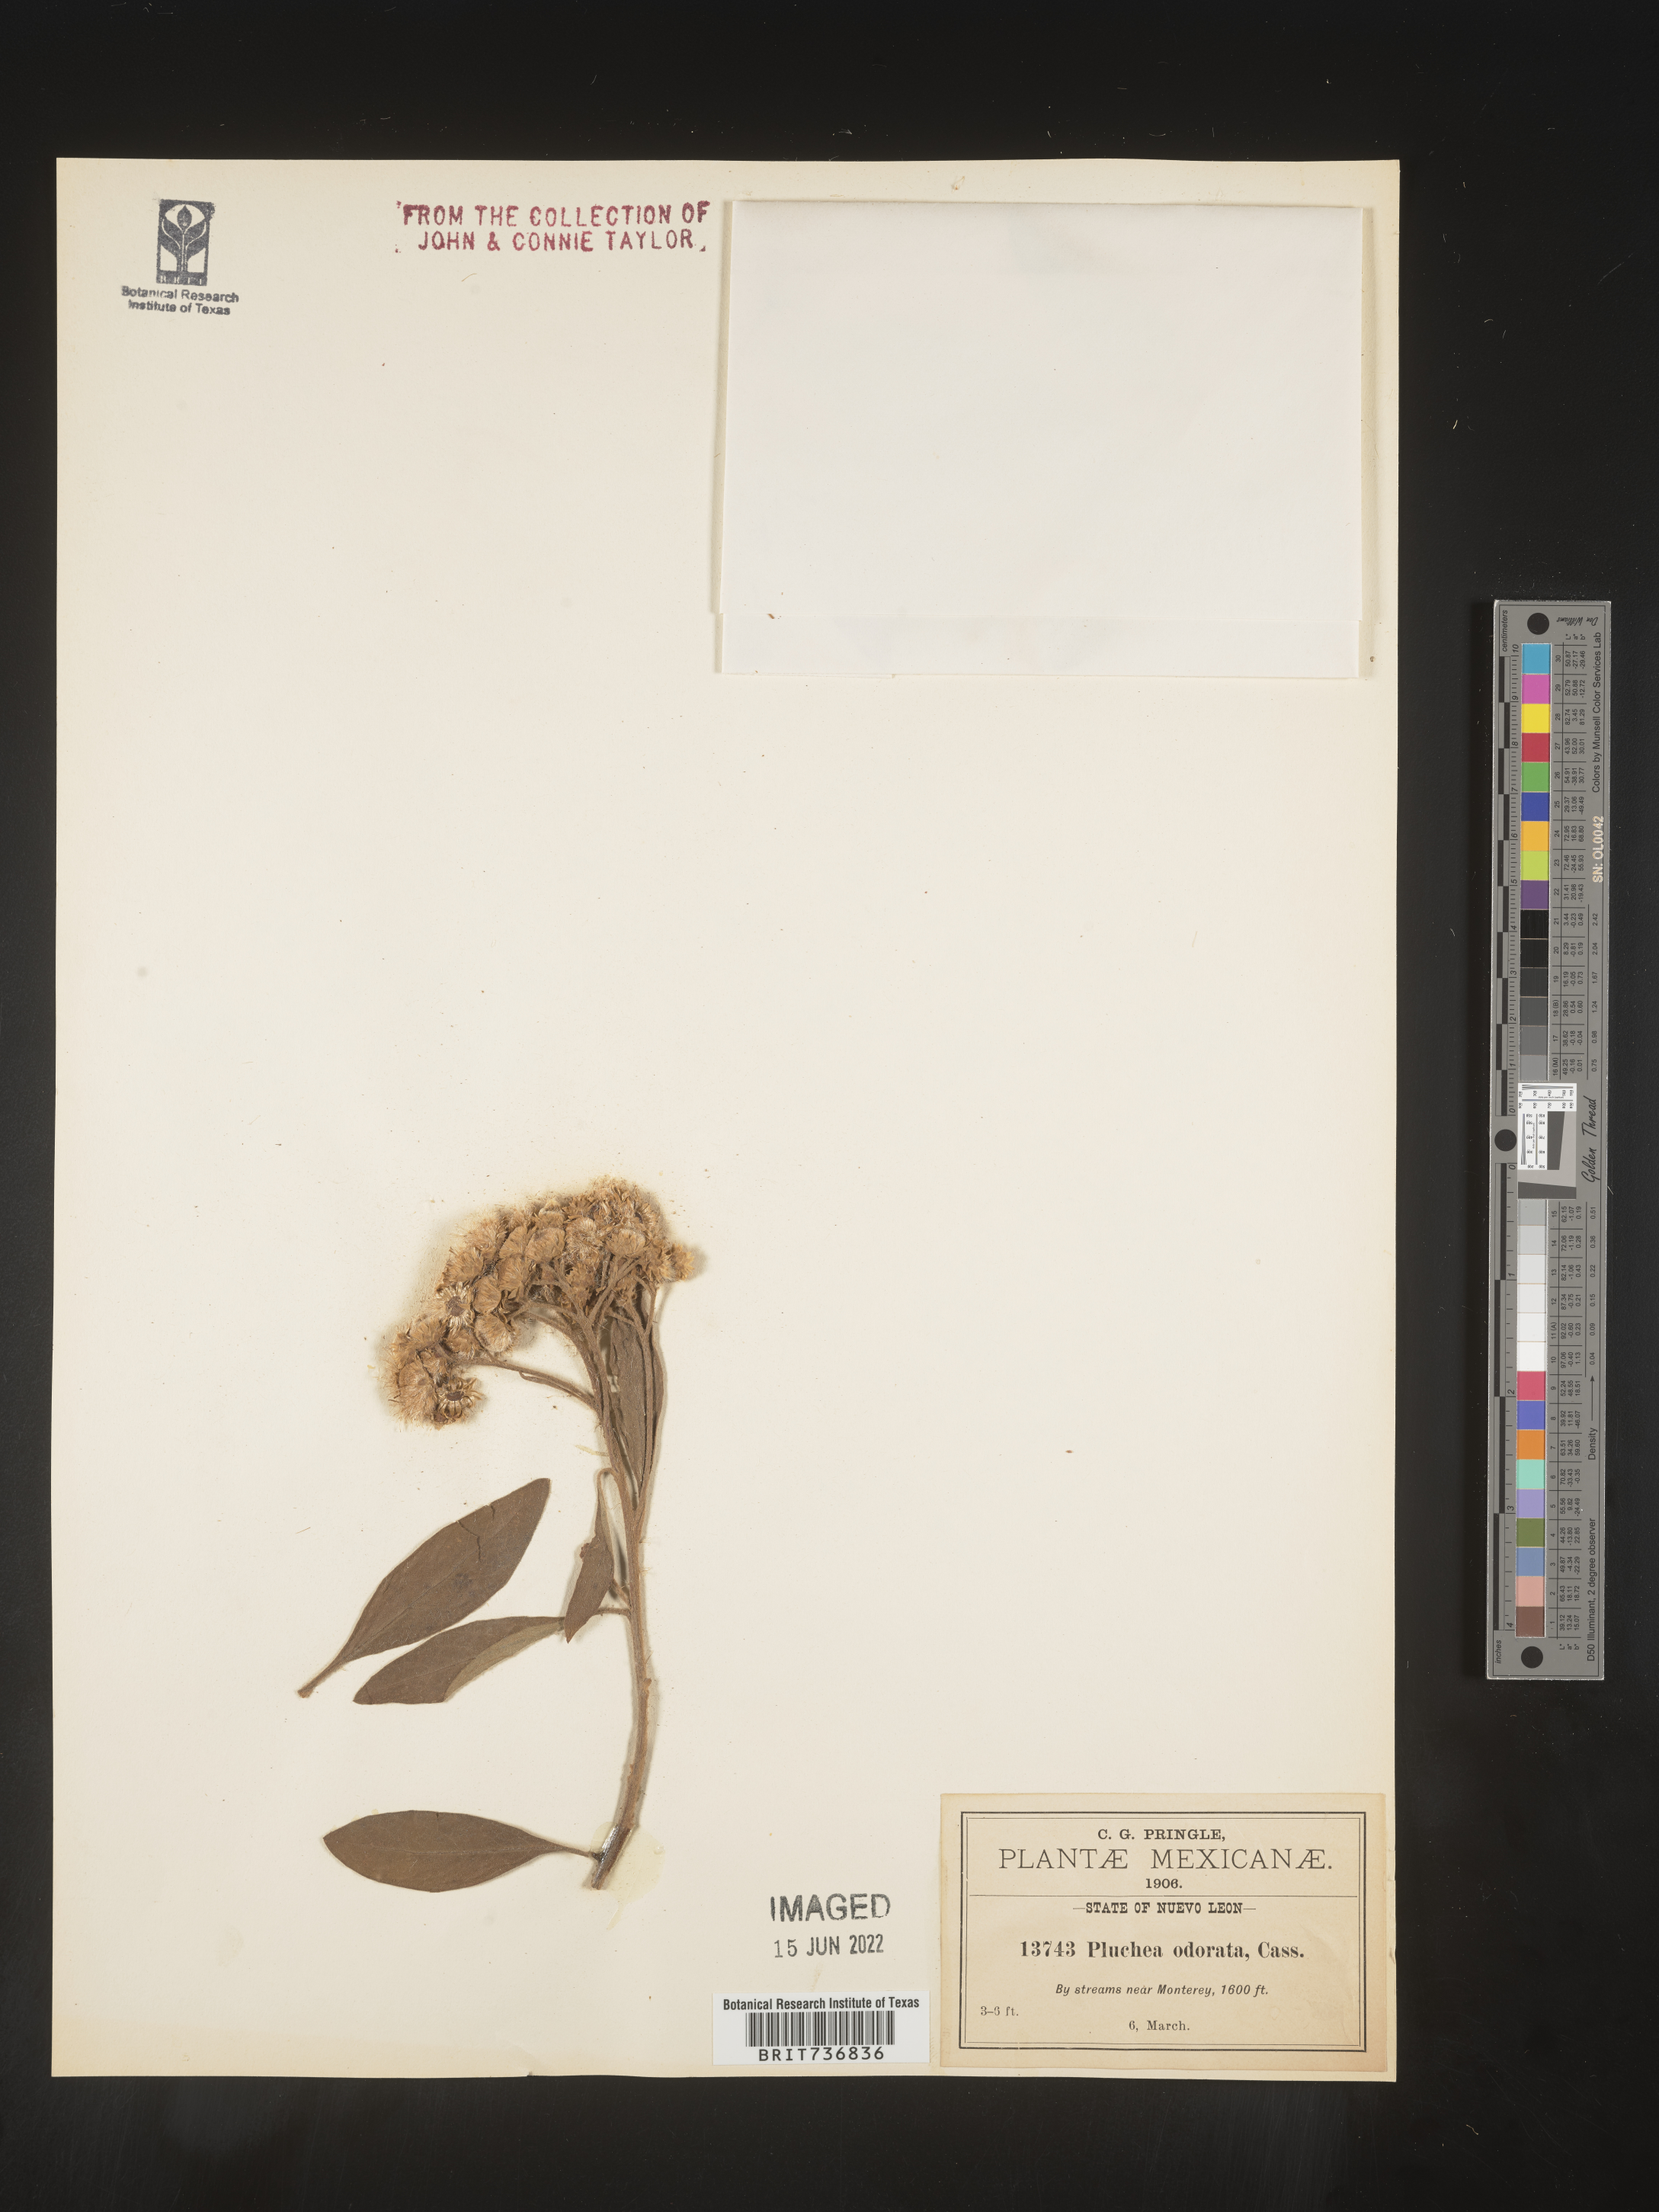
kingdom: Plantae
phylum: Tracheophyta
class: Magnoliopsida
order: Asterales
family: Asteraceae
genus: Pluchea
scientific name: Pluchea
